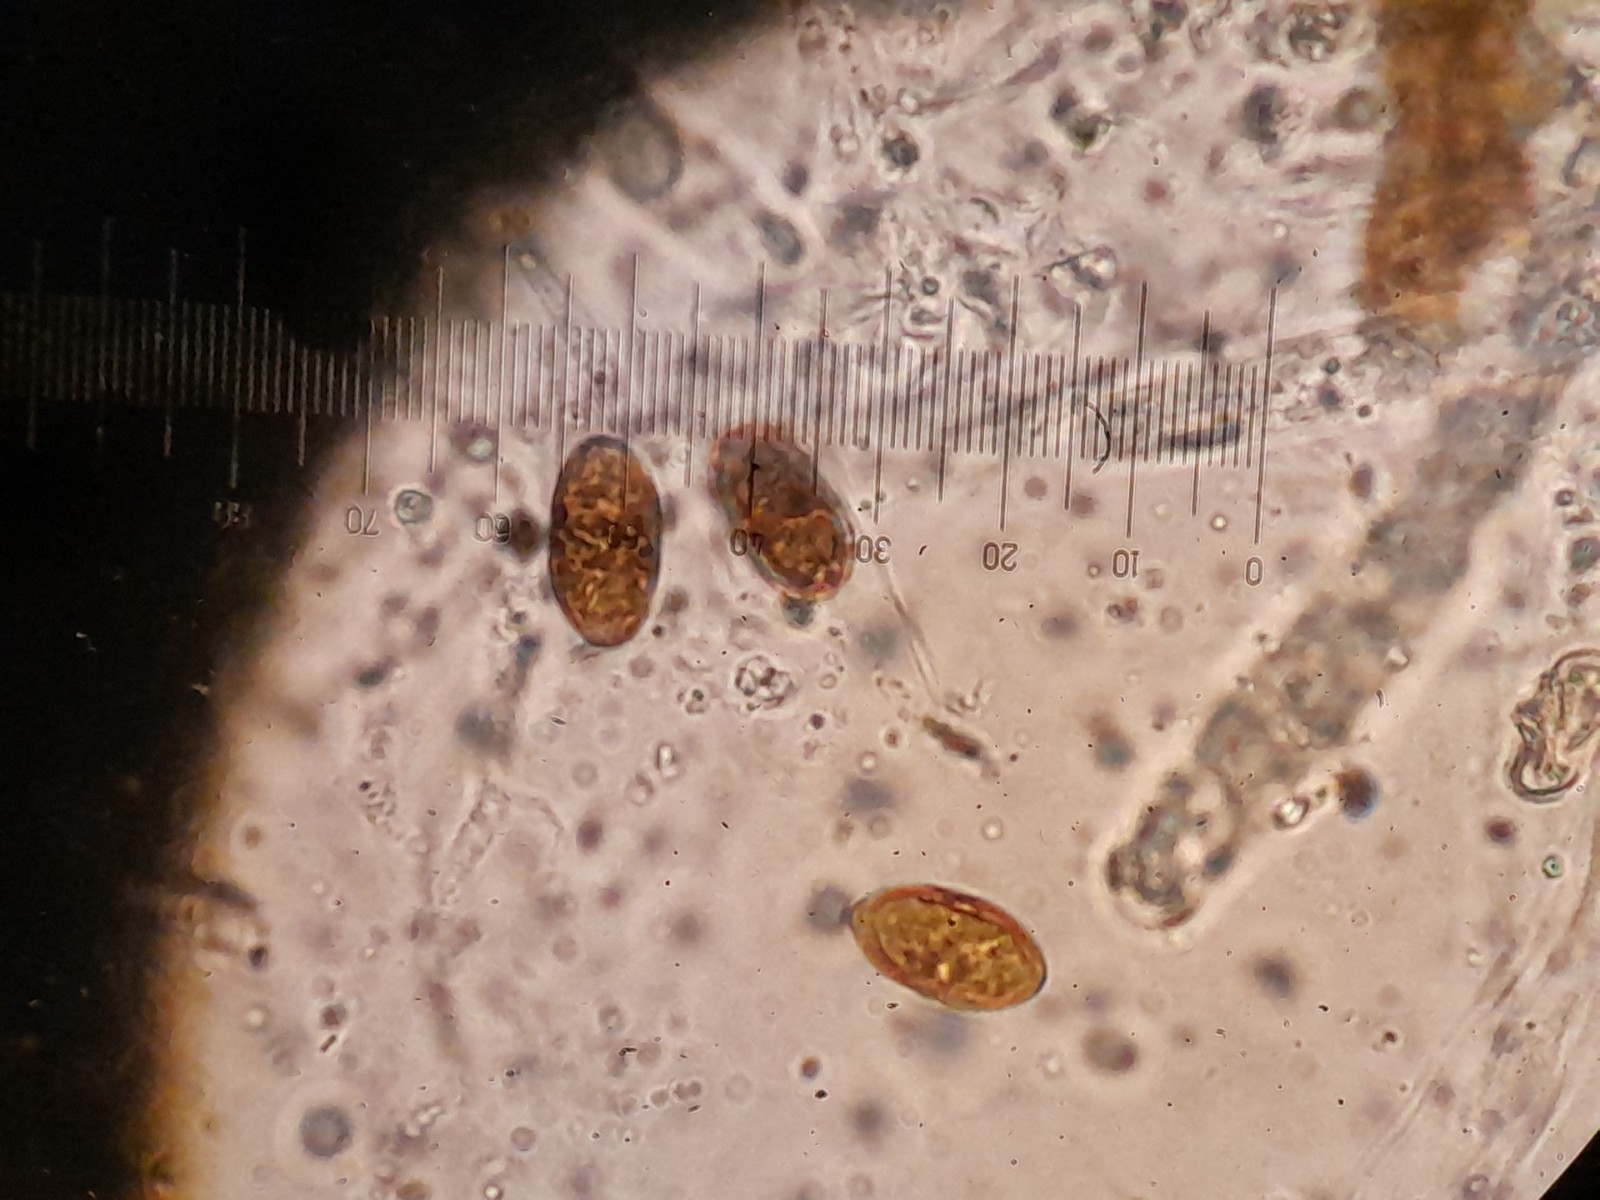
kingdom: Fungi
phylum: Ascomycota
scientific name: Ascomycota
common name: sæksvampe
